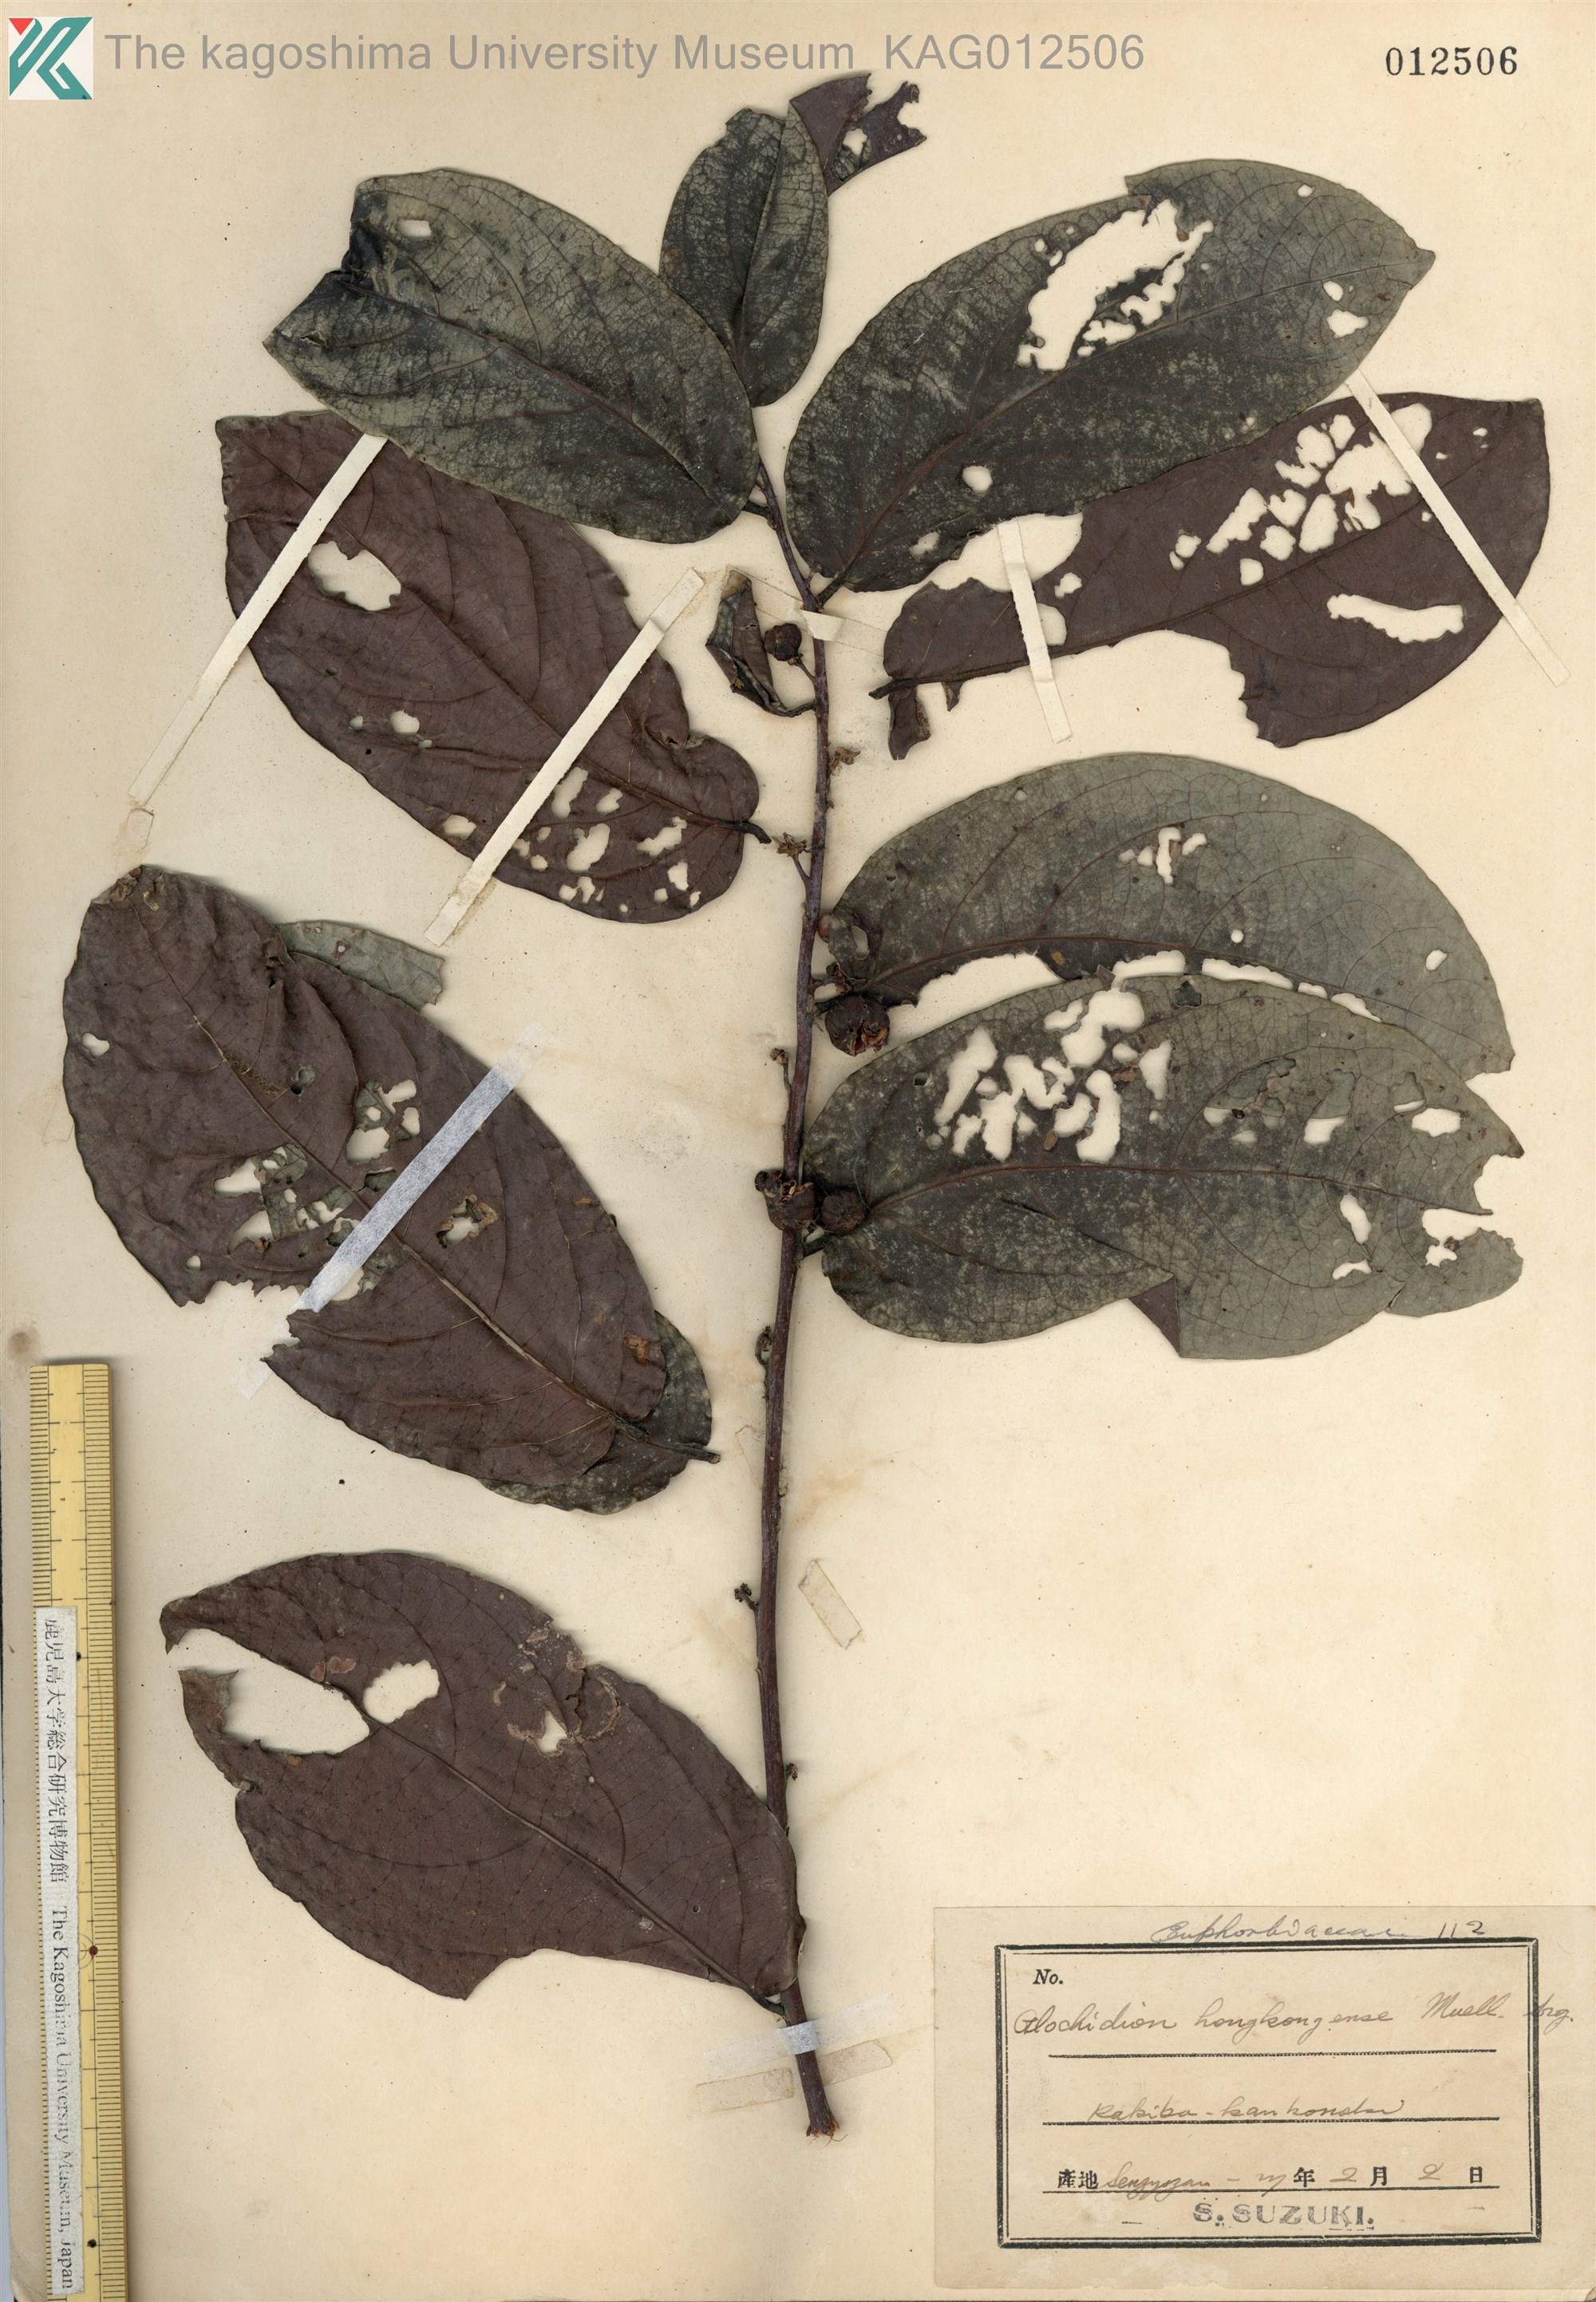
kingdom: Plantae
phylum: Tracheophyta
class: Magnoliopsida
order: Malpighiales
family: Phyllanthaceae
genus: Glochidion
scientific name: Glochidion zeylanicum
